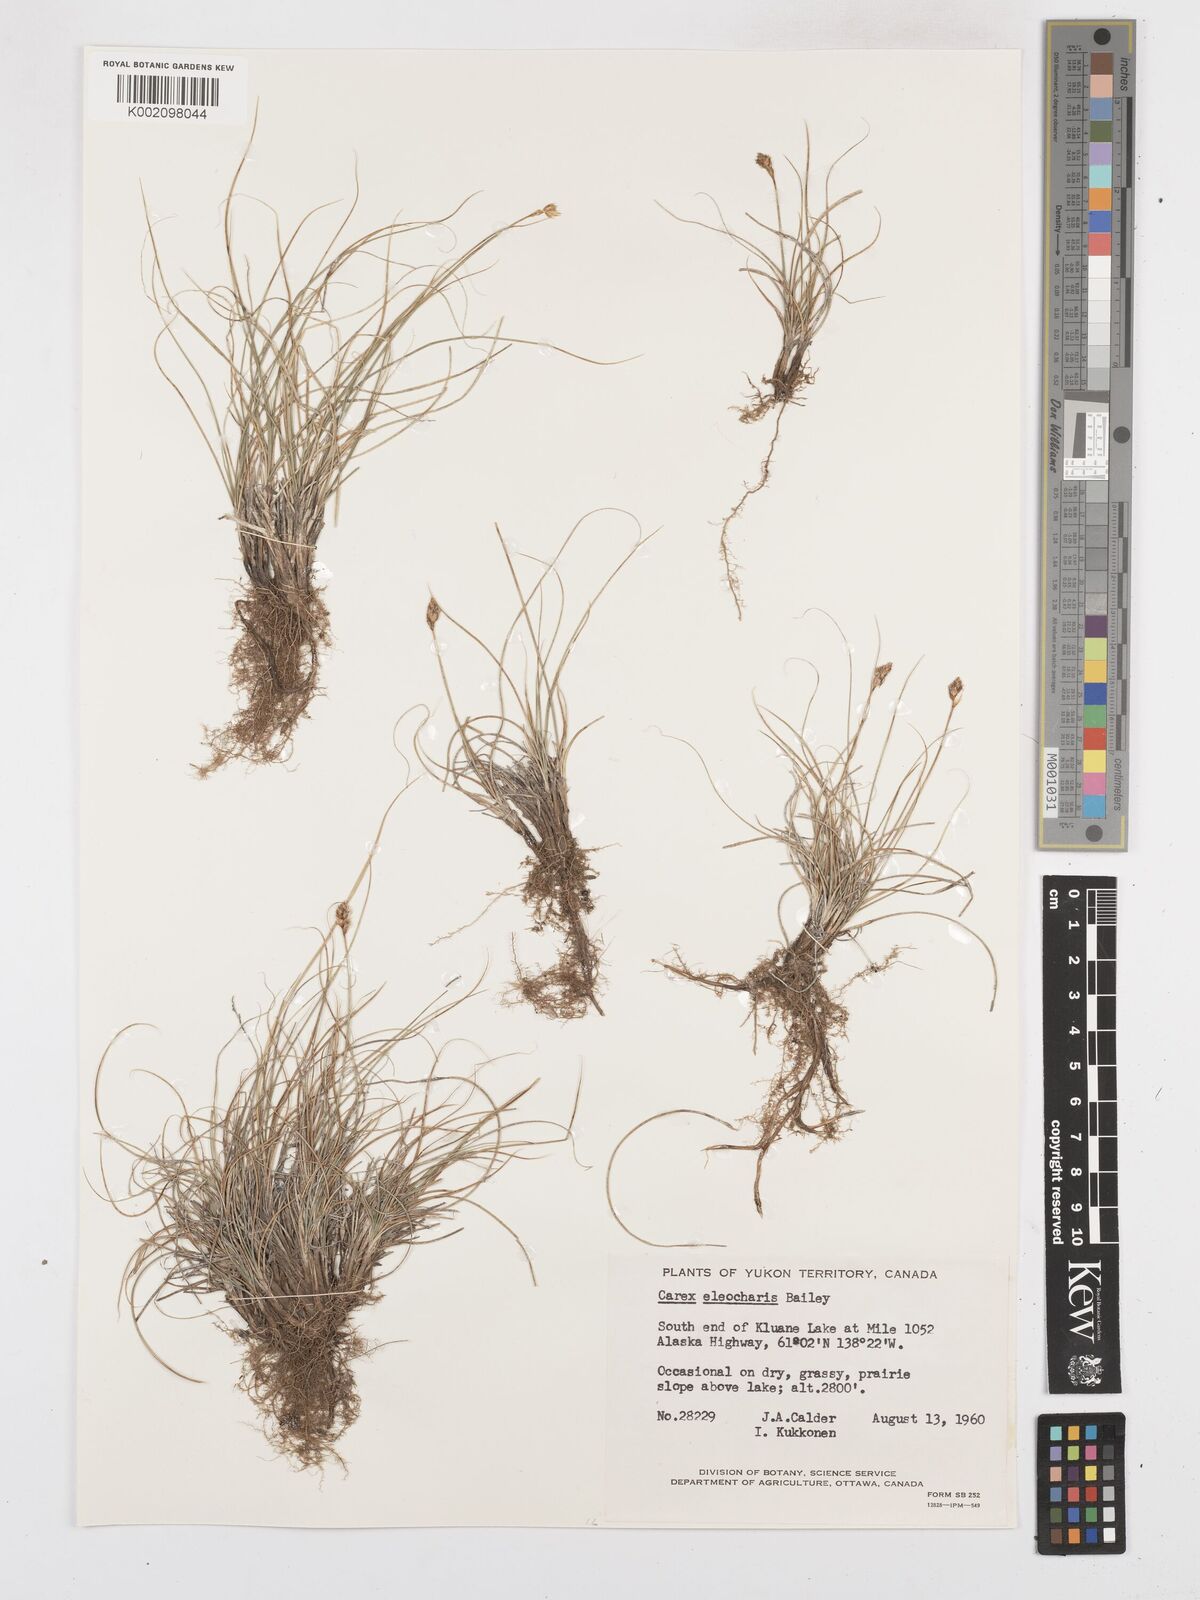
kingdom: Plantae
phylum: Tracheophyta
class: Liliopsida
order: Poales
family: Cyperaceae
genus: Carex
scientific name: Carex duriuscula
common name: Involute-leaved sedge
